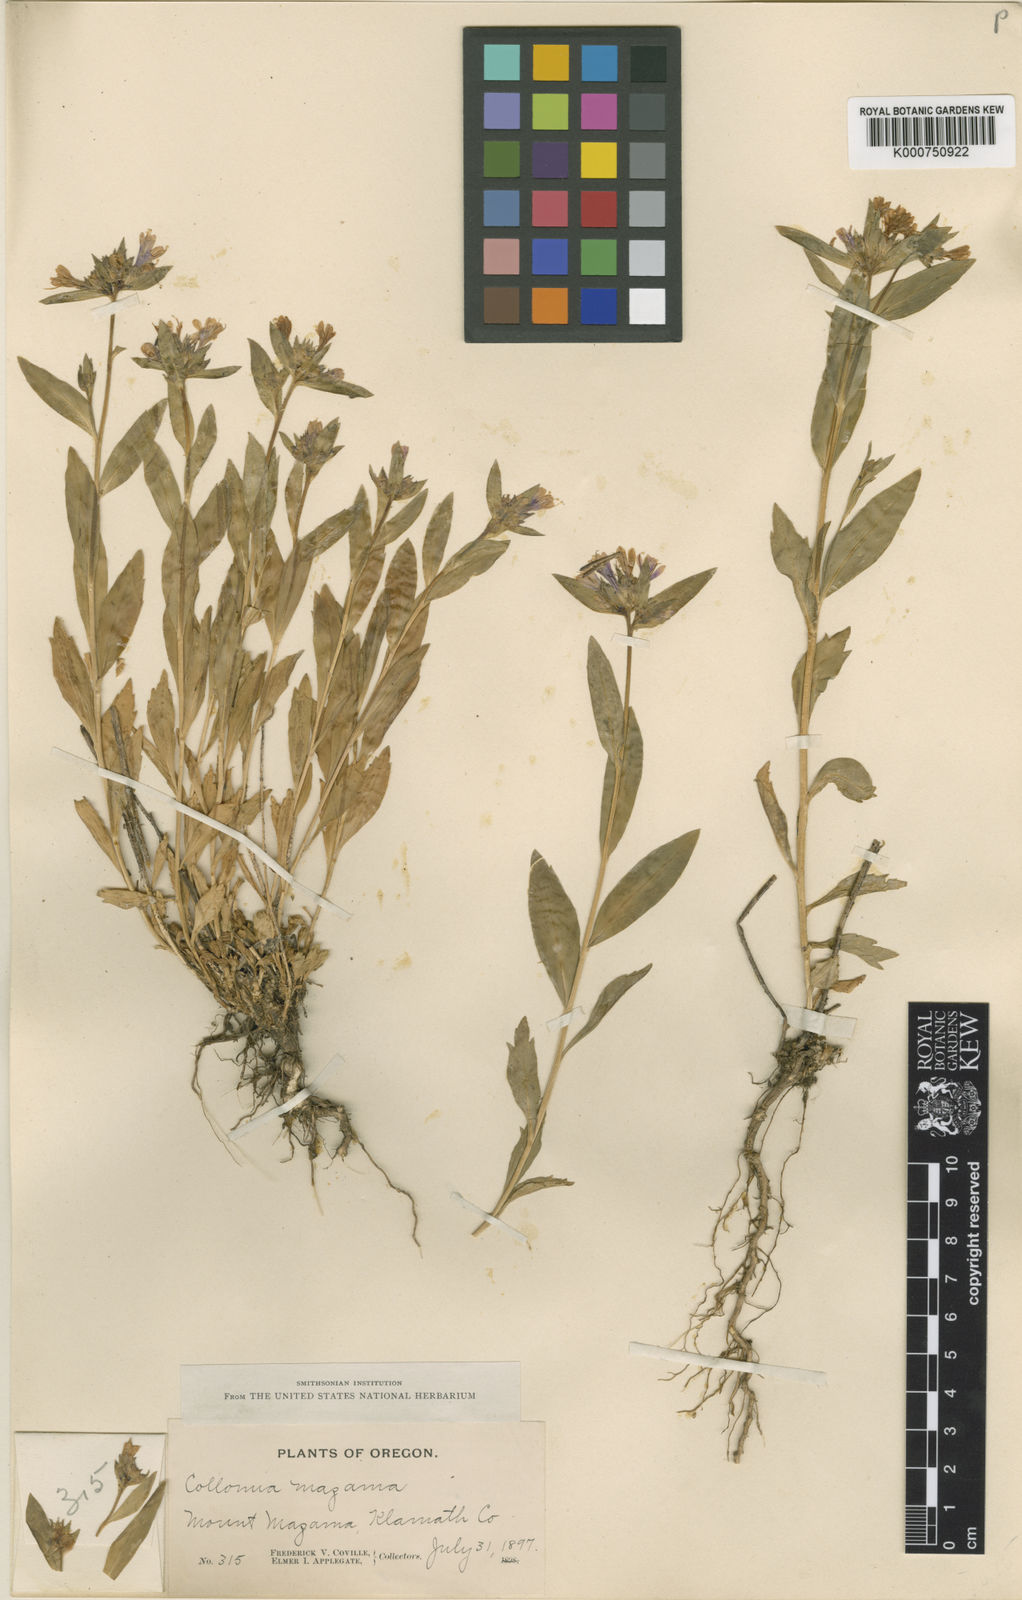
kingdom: Plantae
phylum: Tracheophyta
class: Magnoliopsida
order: Ericales
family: Polemoniaceae
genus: Collomia
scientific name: Collomia mazama
